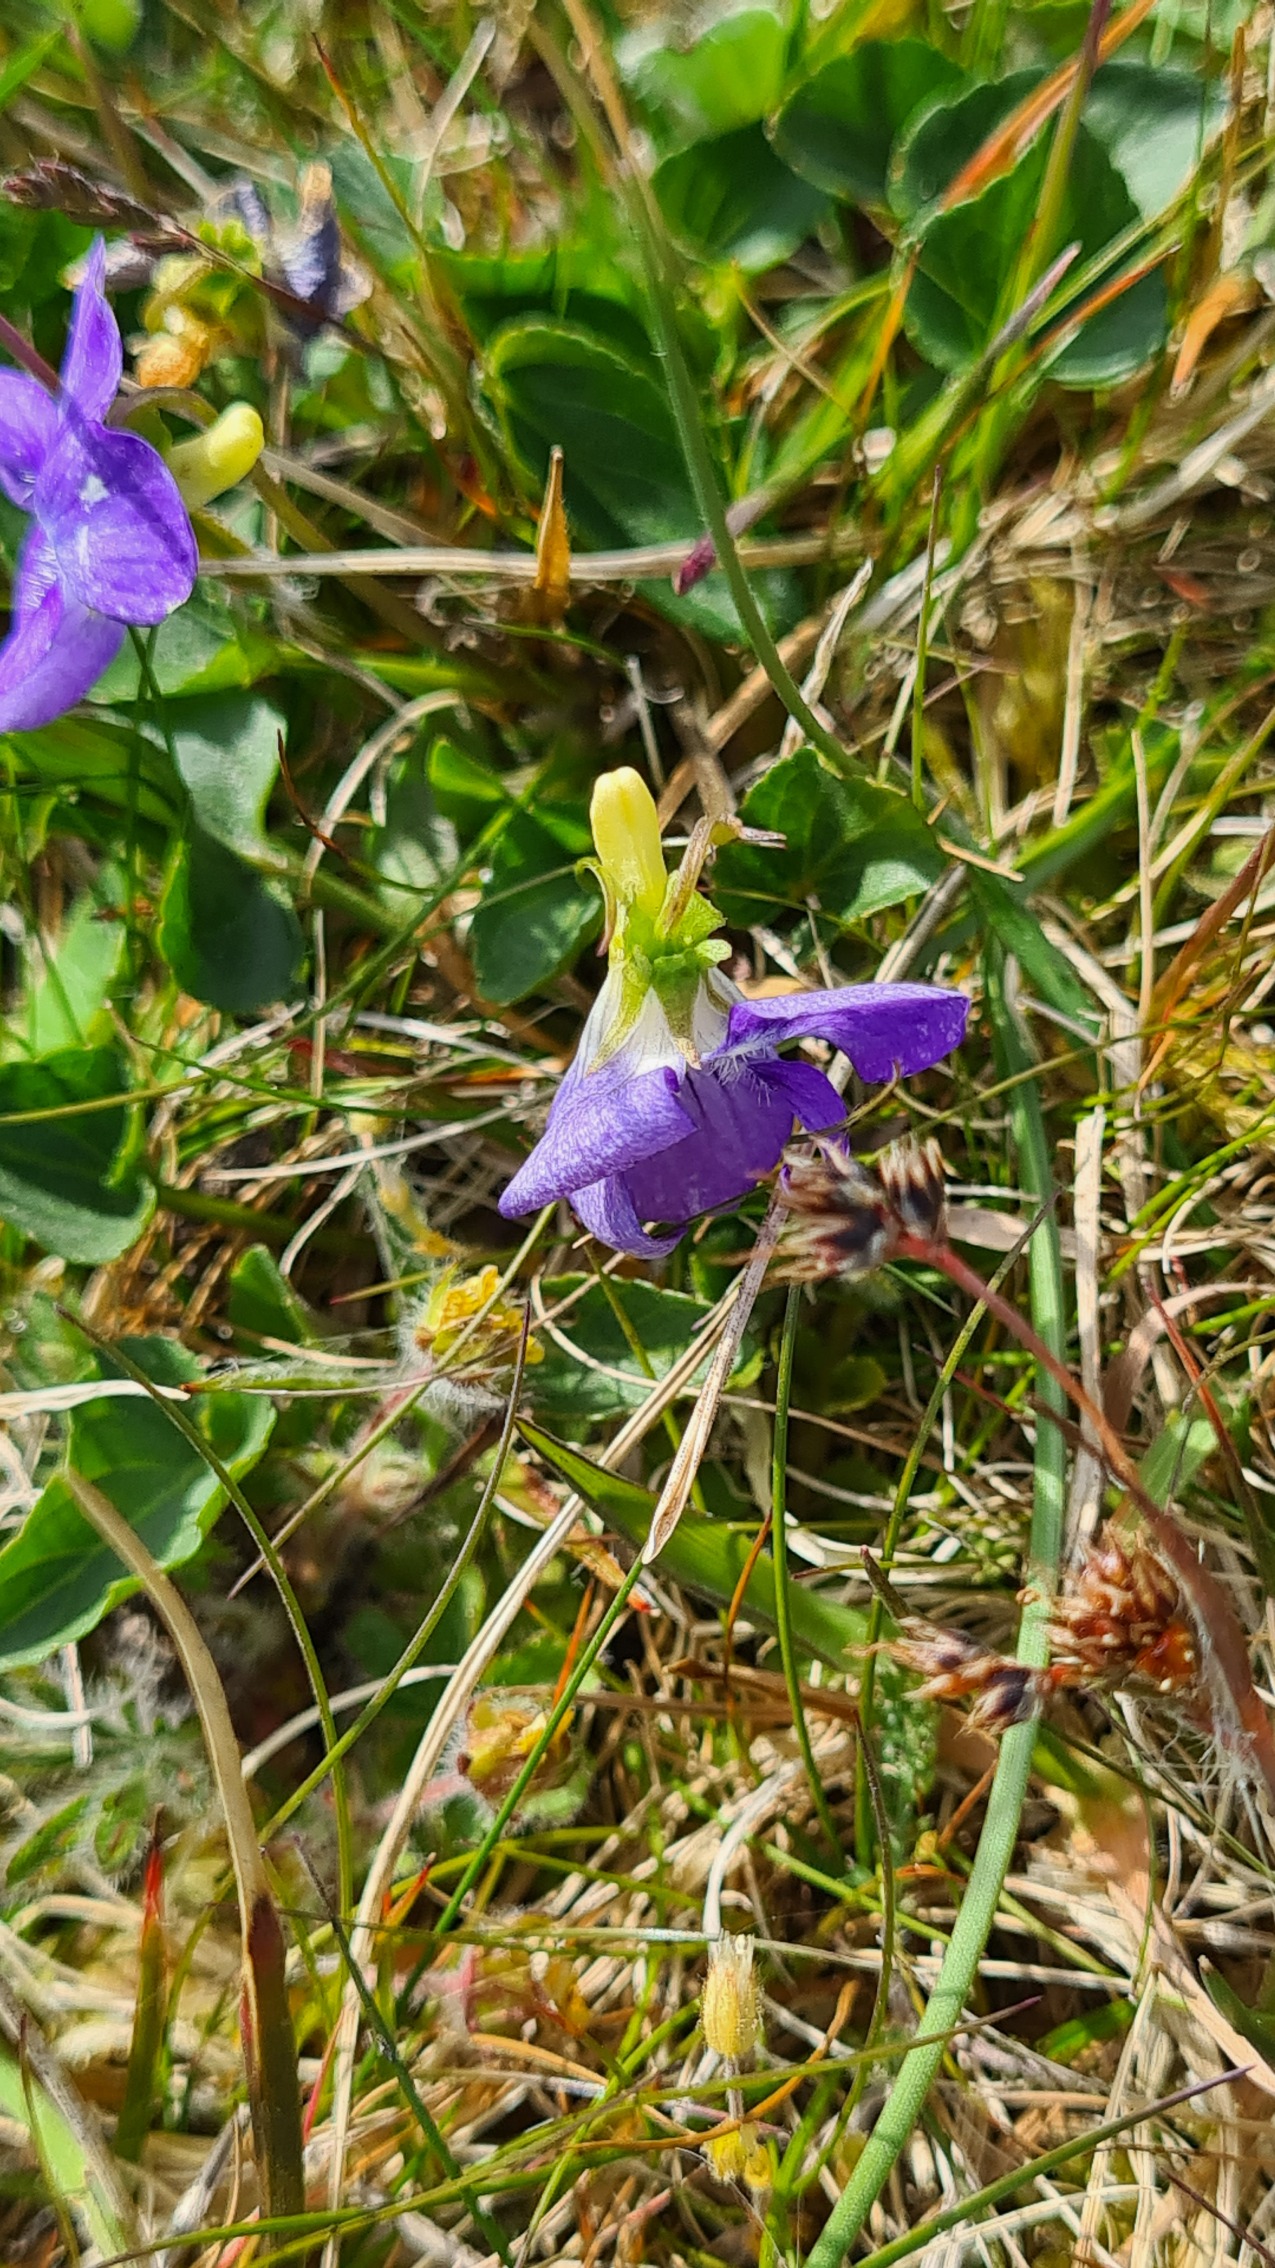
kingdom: Plantae
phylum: Tracheophyta
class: Magnoliopsida
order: Malpighiales
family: Violaceae
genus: Viola
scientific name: Viola canina
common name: Hunde-viol
